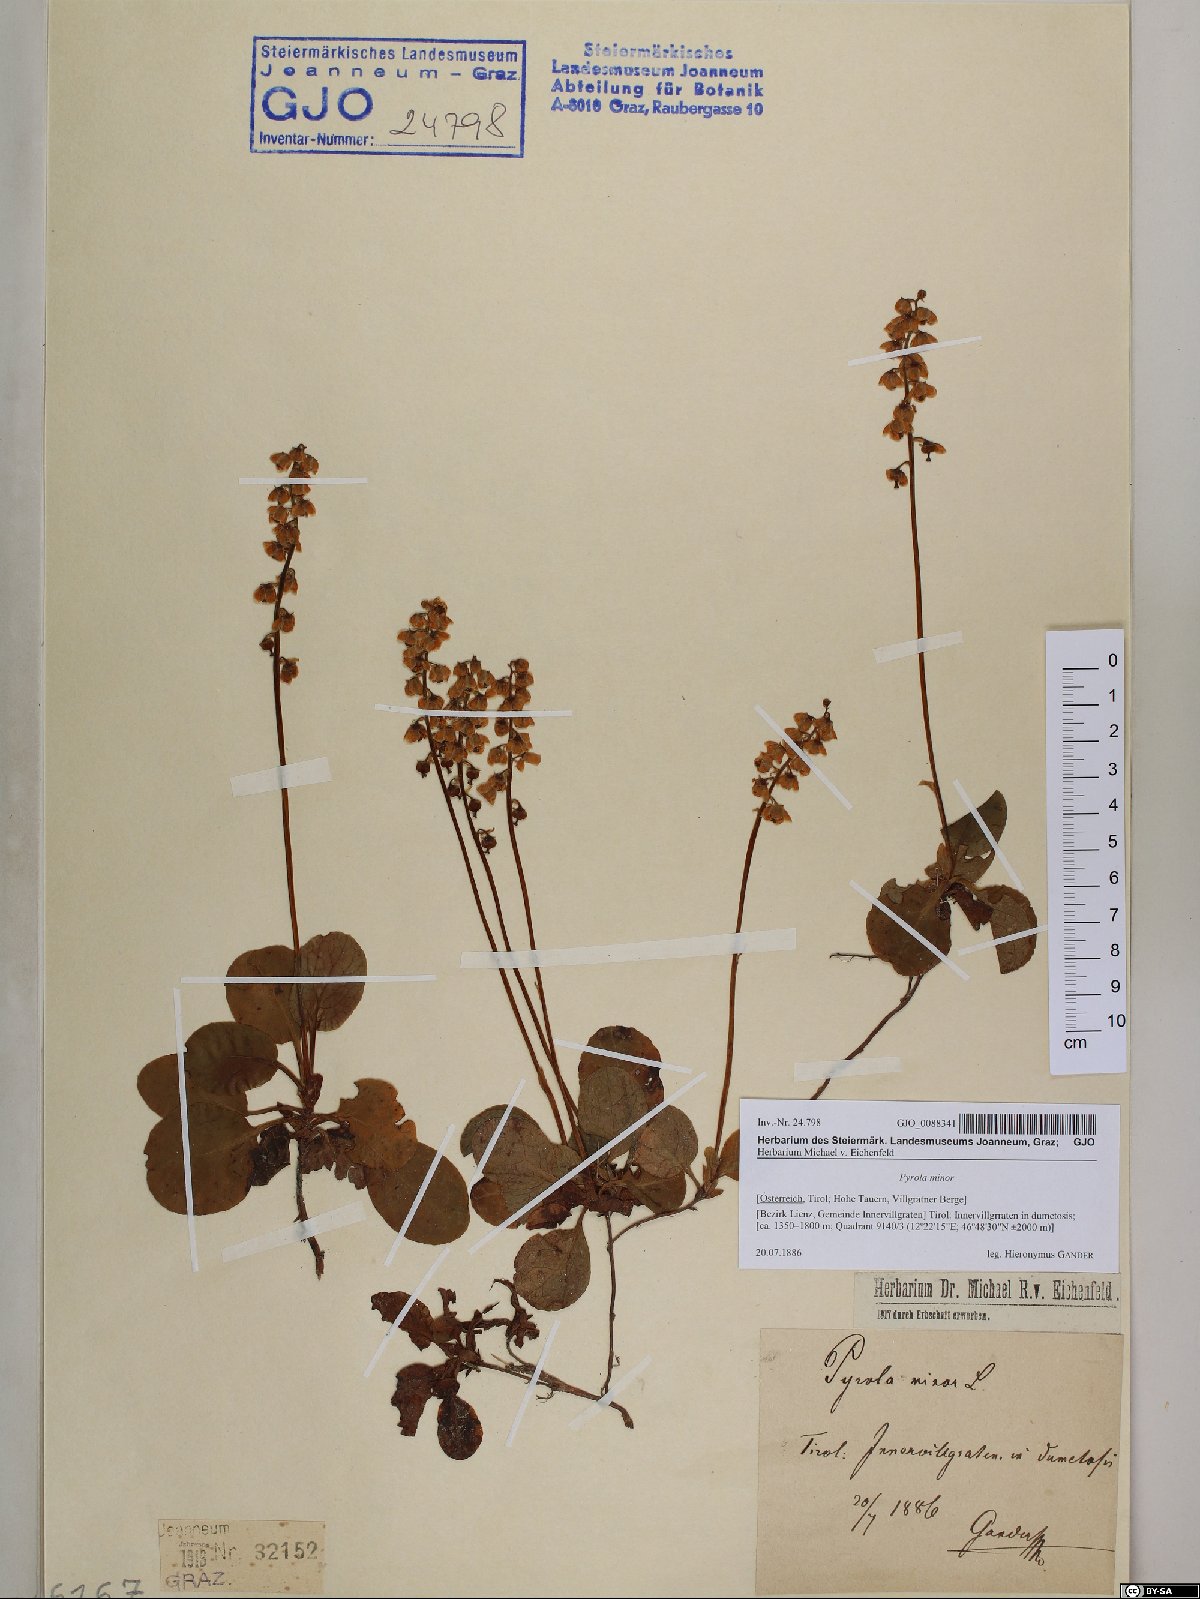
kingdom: Plantae
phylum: Tracheophyta
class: Magnoliopsida
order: Ericales
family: Ericaceae
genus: Pyrola
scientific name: Pyrola minor
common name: Common wintergreen
